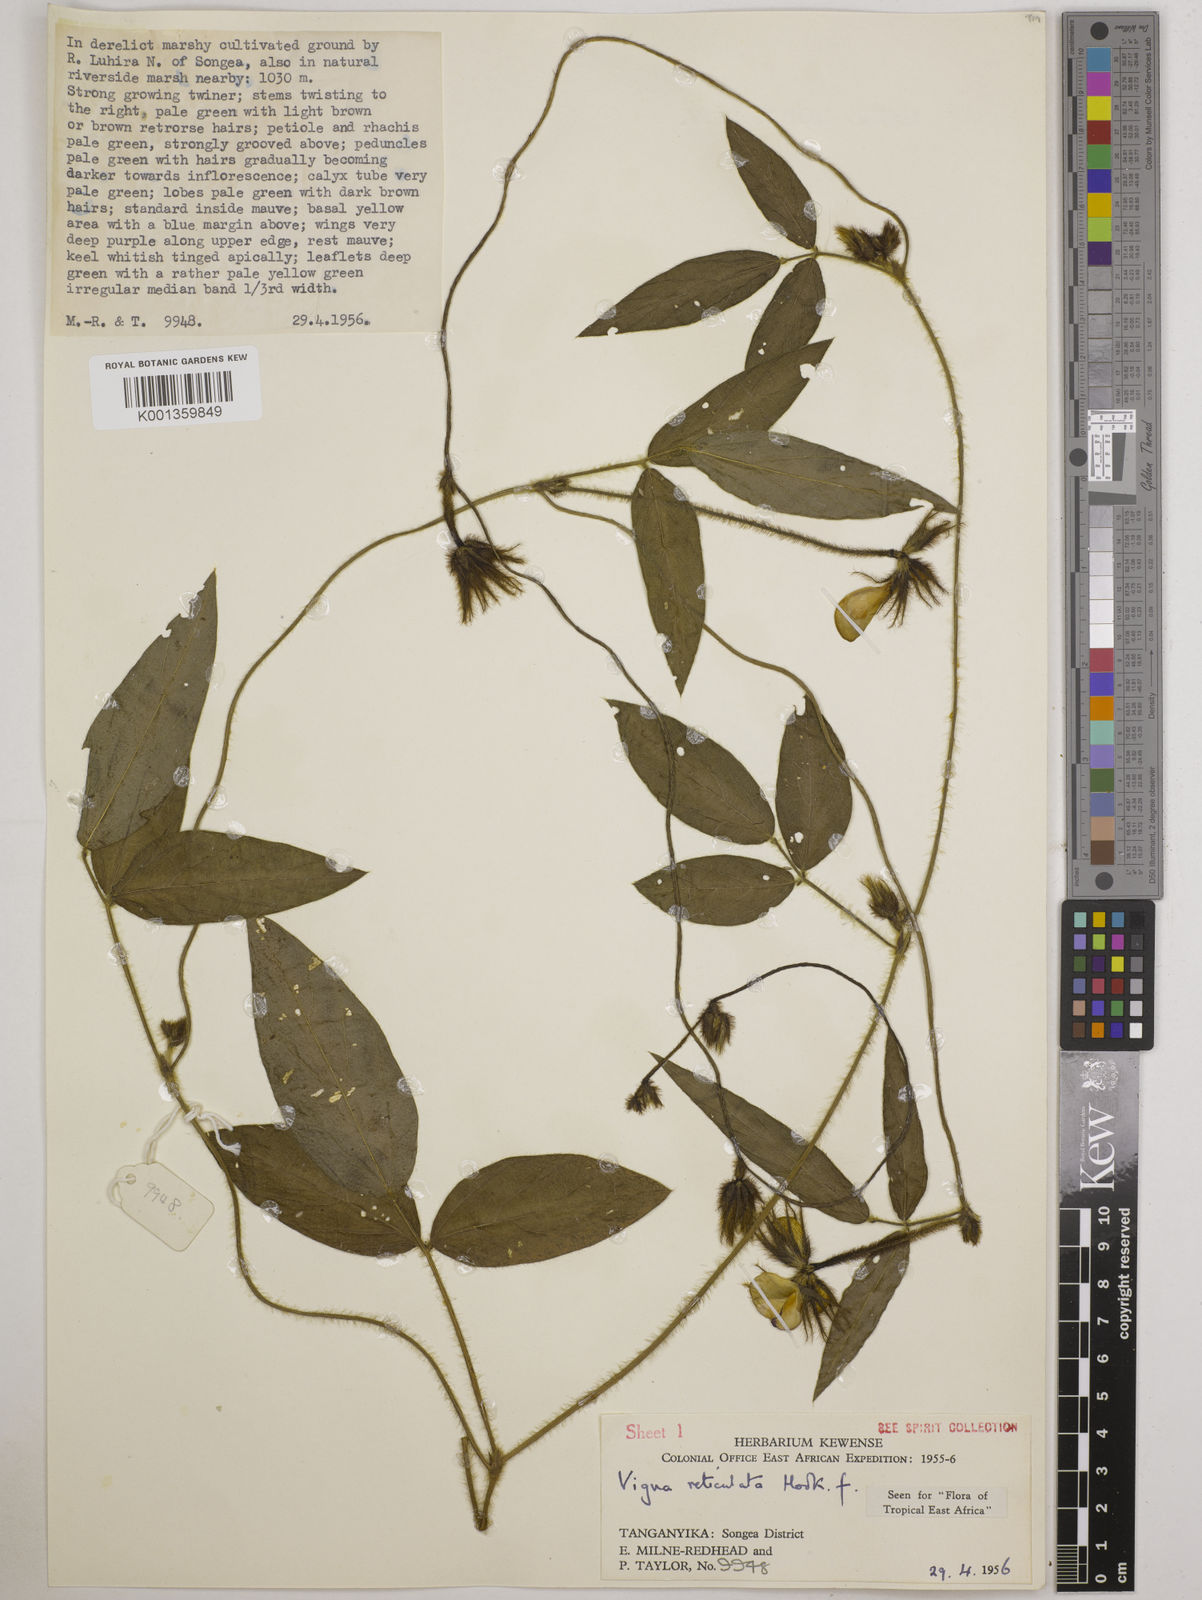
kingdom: Plantae
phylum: Tracheophyta
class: Magnoliopsida
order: Fabales
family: Fabaceae
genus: Vigna
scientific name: Vigna reticulata
